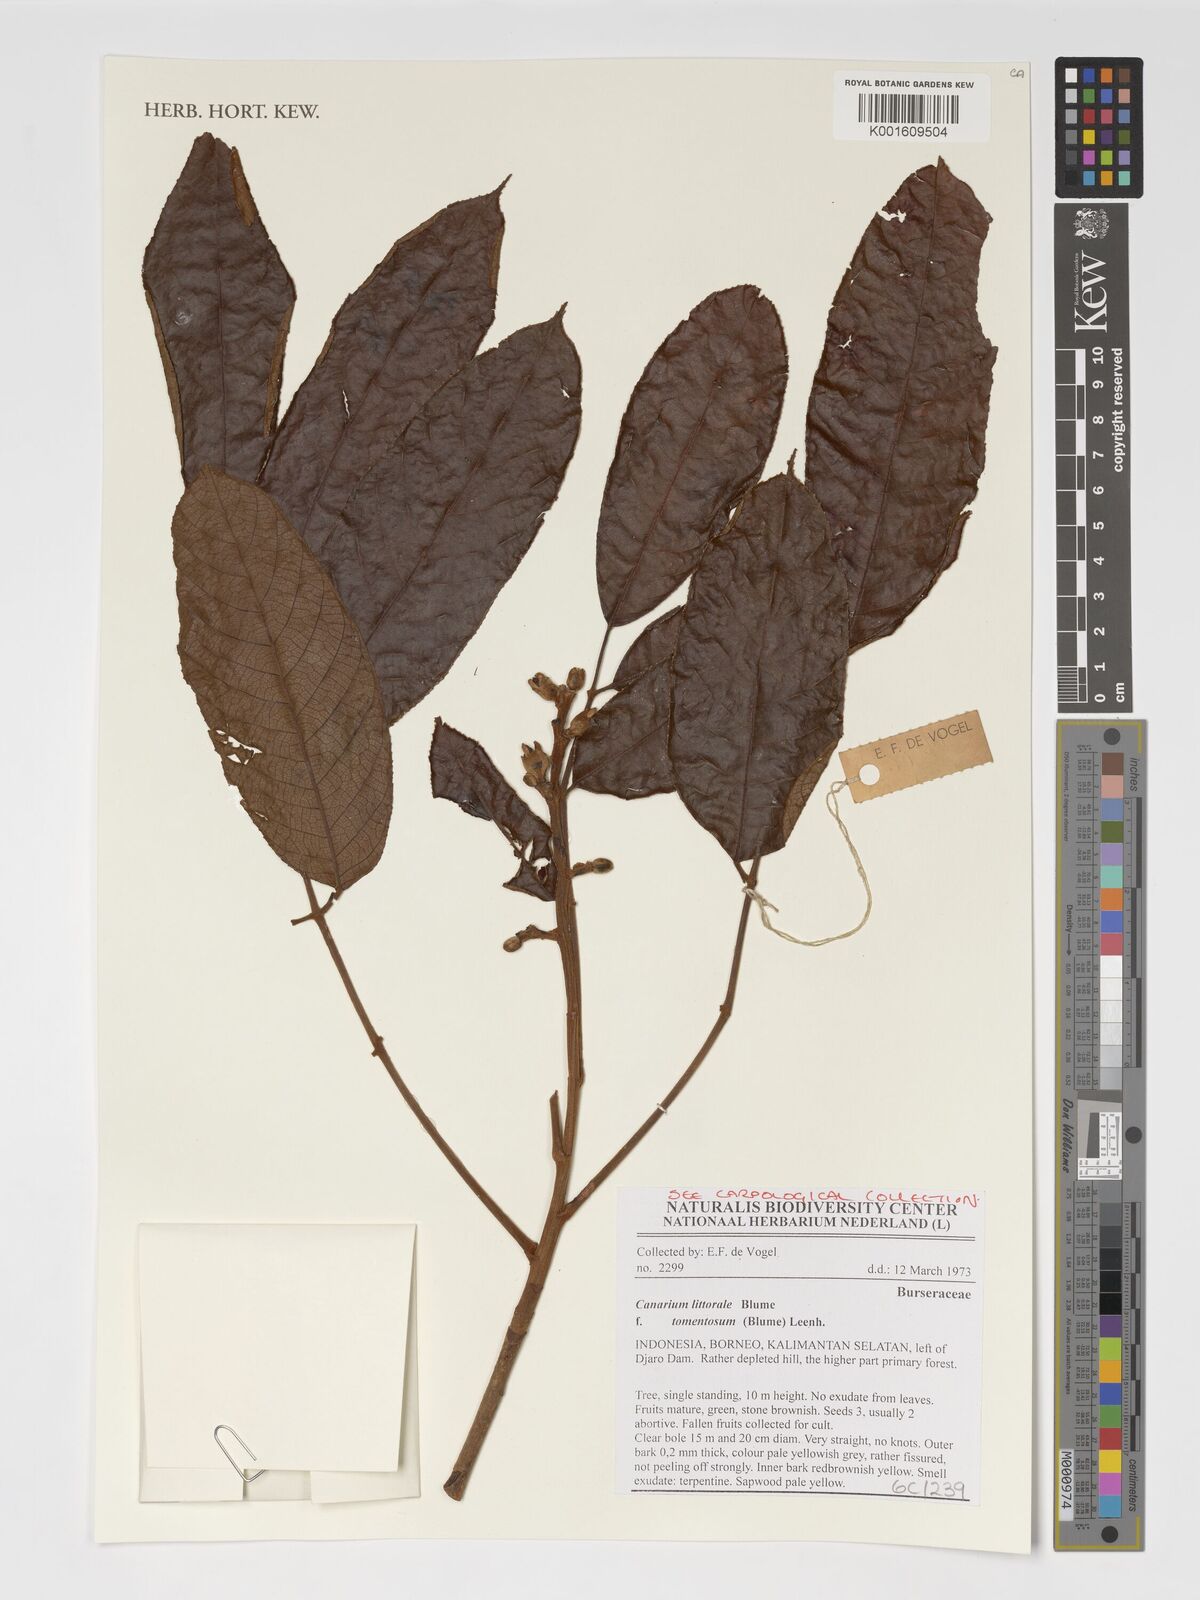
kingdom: Plantae
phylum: Tracheophyta
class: Magnoliopsida
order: Sapindales
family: Burseraceae
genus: Canarium
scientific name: Canarium littorale
